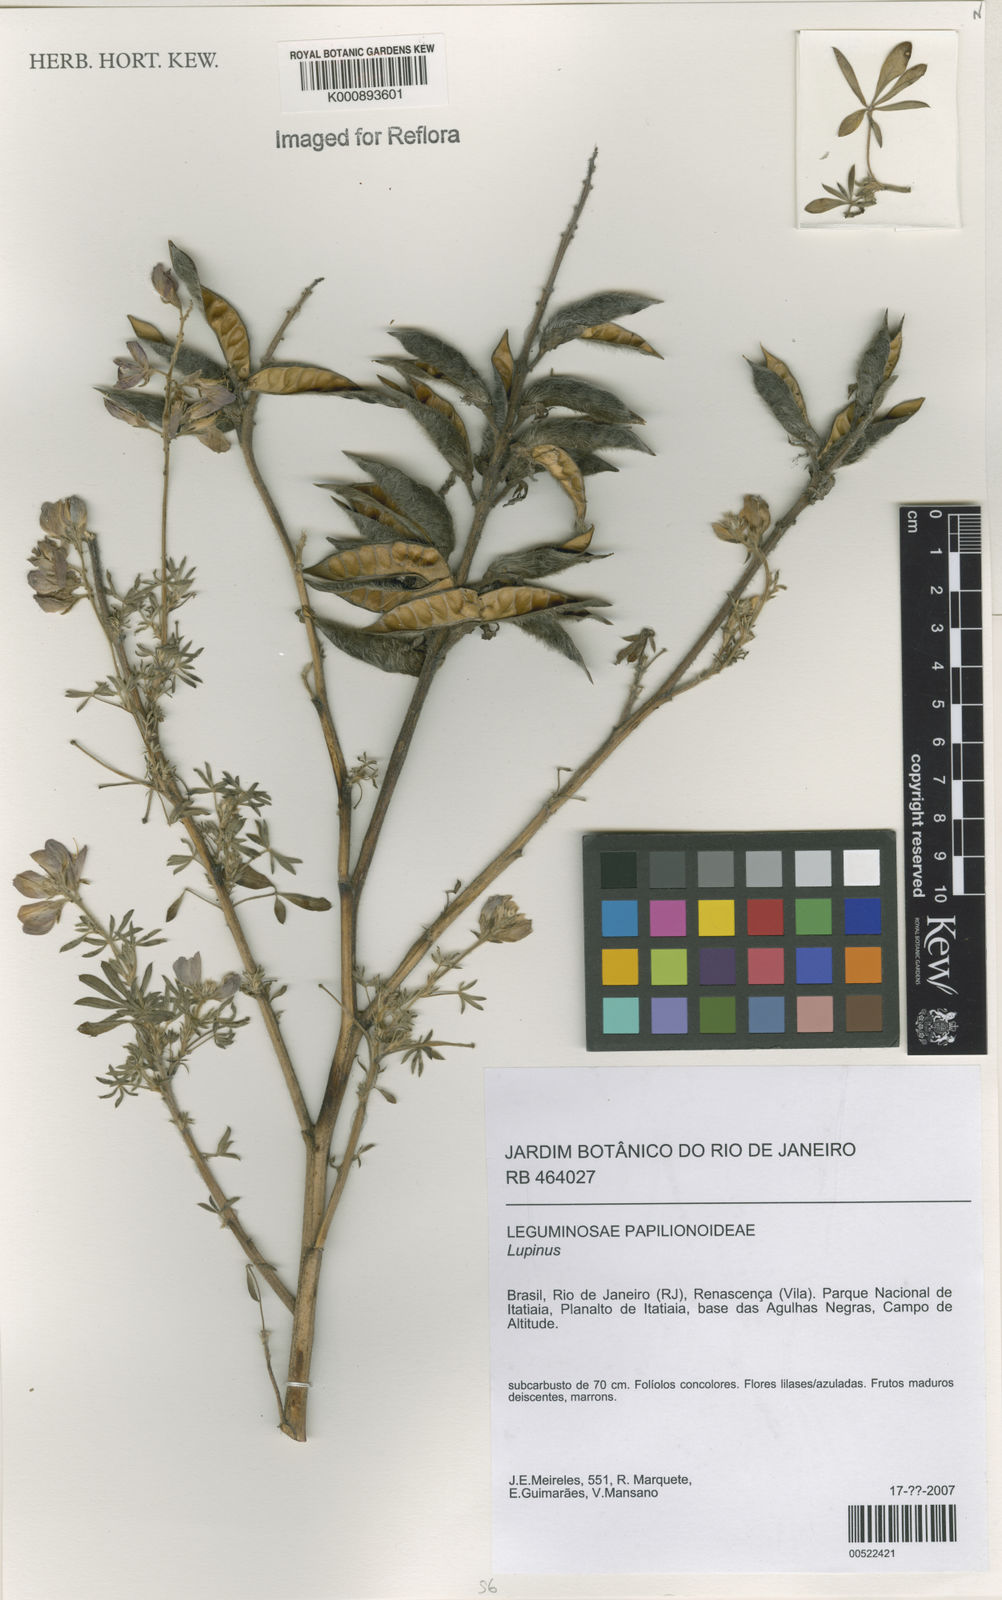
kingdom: Plantae
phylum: Tracheophyta
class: Magnoliopsida
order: Fabales
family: Fabaceae
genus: Lupinus
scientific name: Lupinus
